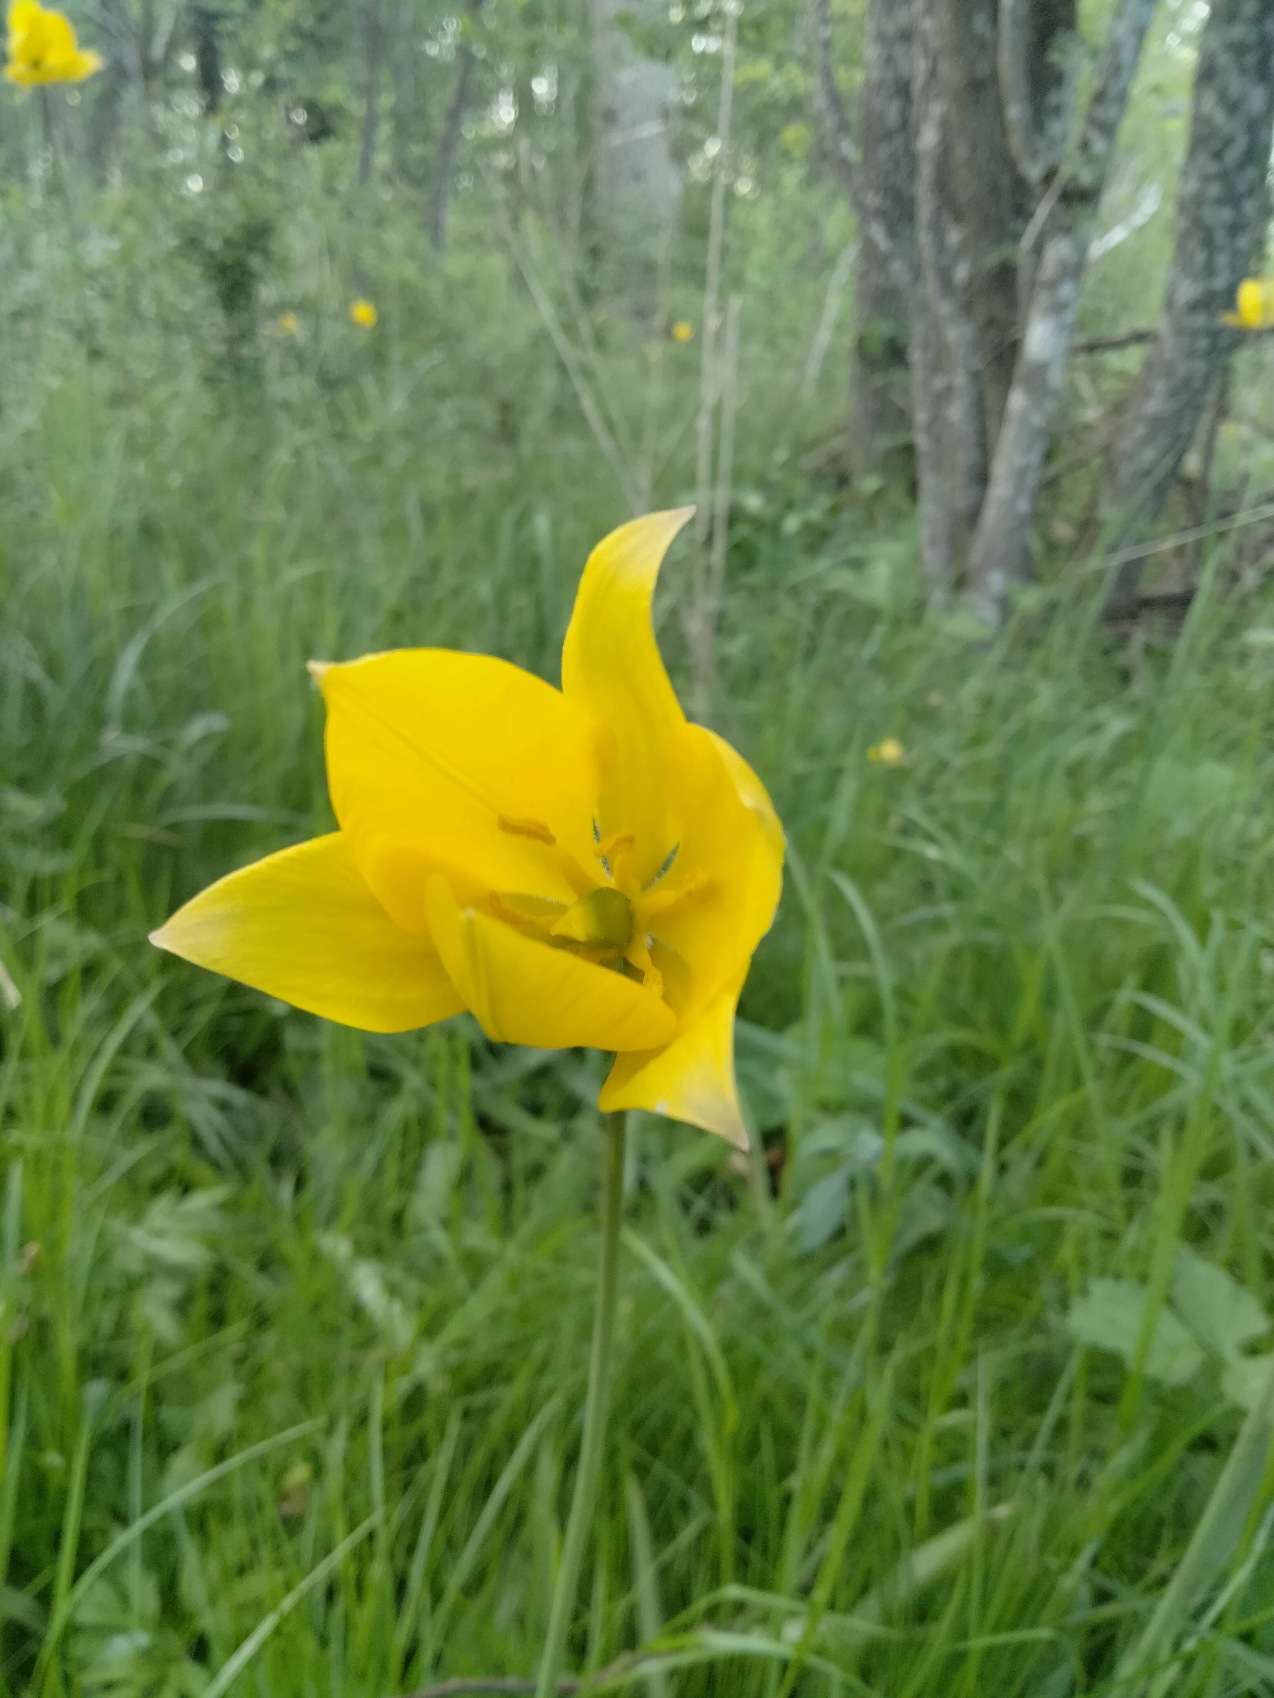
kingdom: Plantae
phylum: Tracheophyta
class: Liliopsida
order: Liliales
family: Liliaceae
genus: Tulipa
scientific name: Tulipa sylvestris
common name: Vild tulipan
